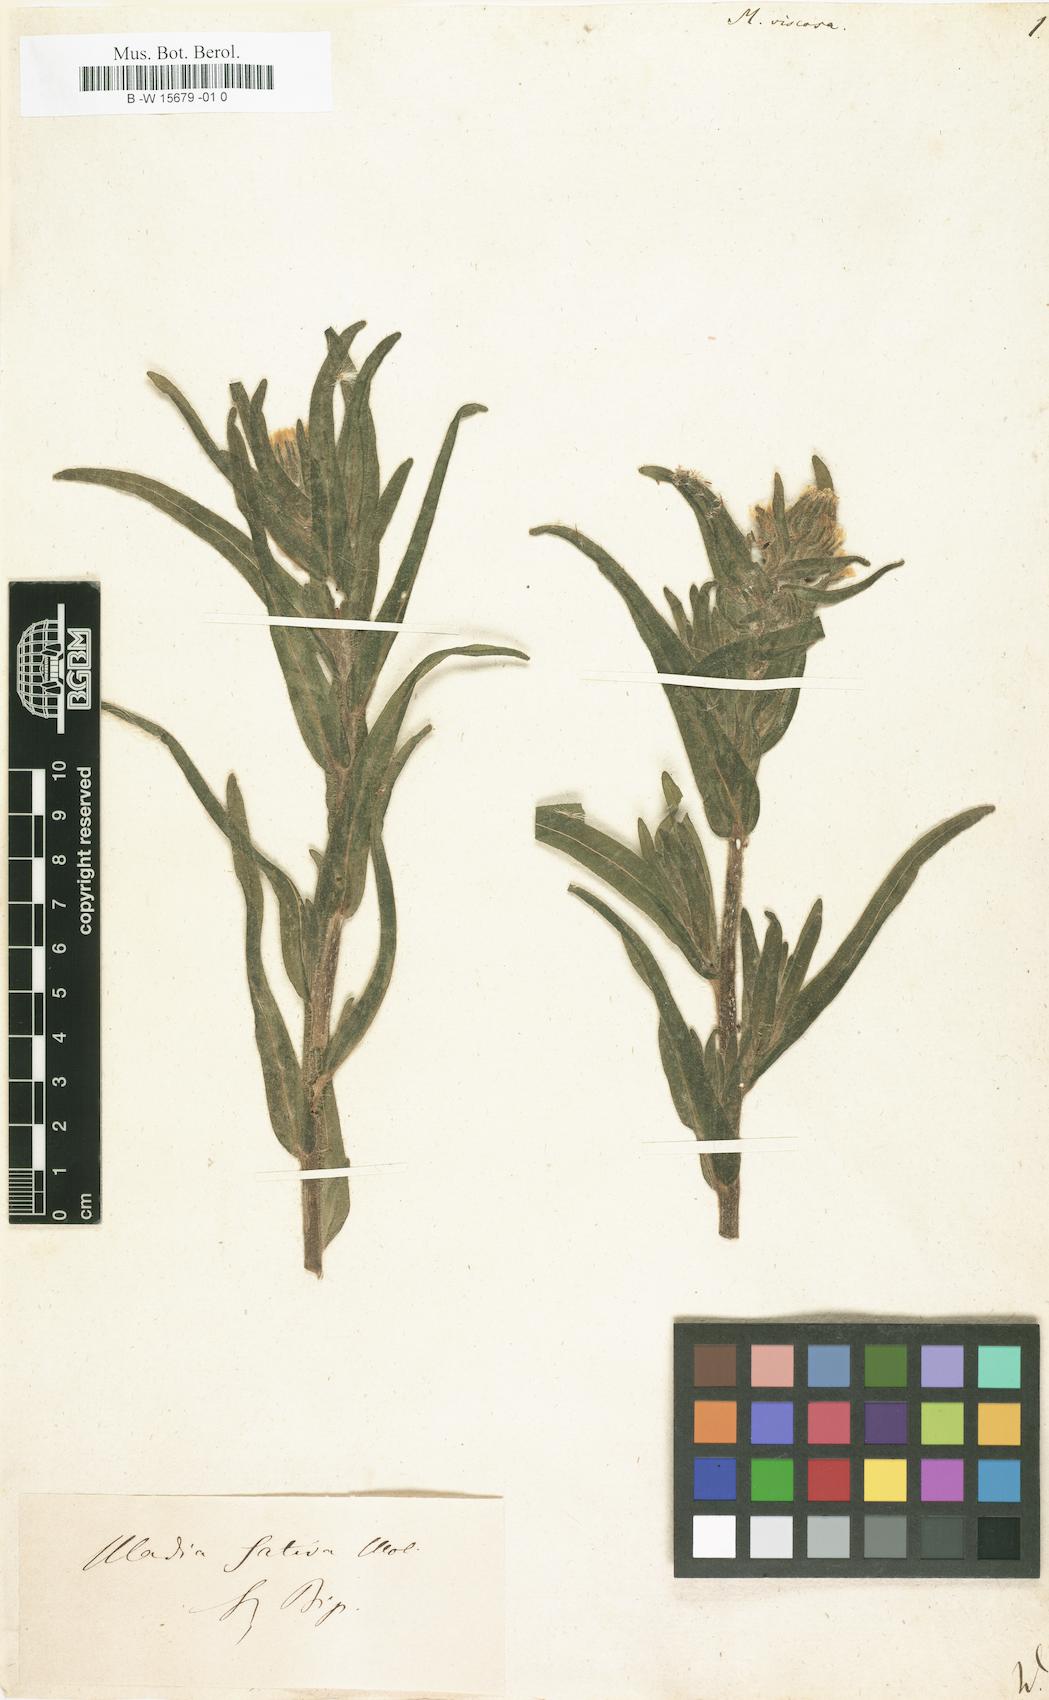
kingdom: Plantae
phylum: Tracheophyta
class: Magnoliopsida
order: Asterales
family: Asteraceae
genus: Madia
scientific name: Madia sativa
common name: Coast tarweed
